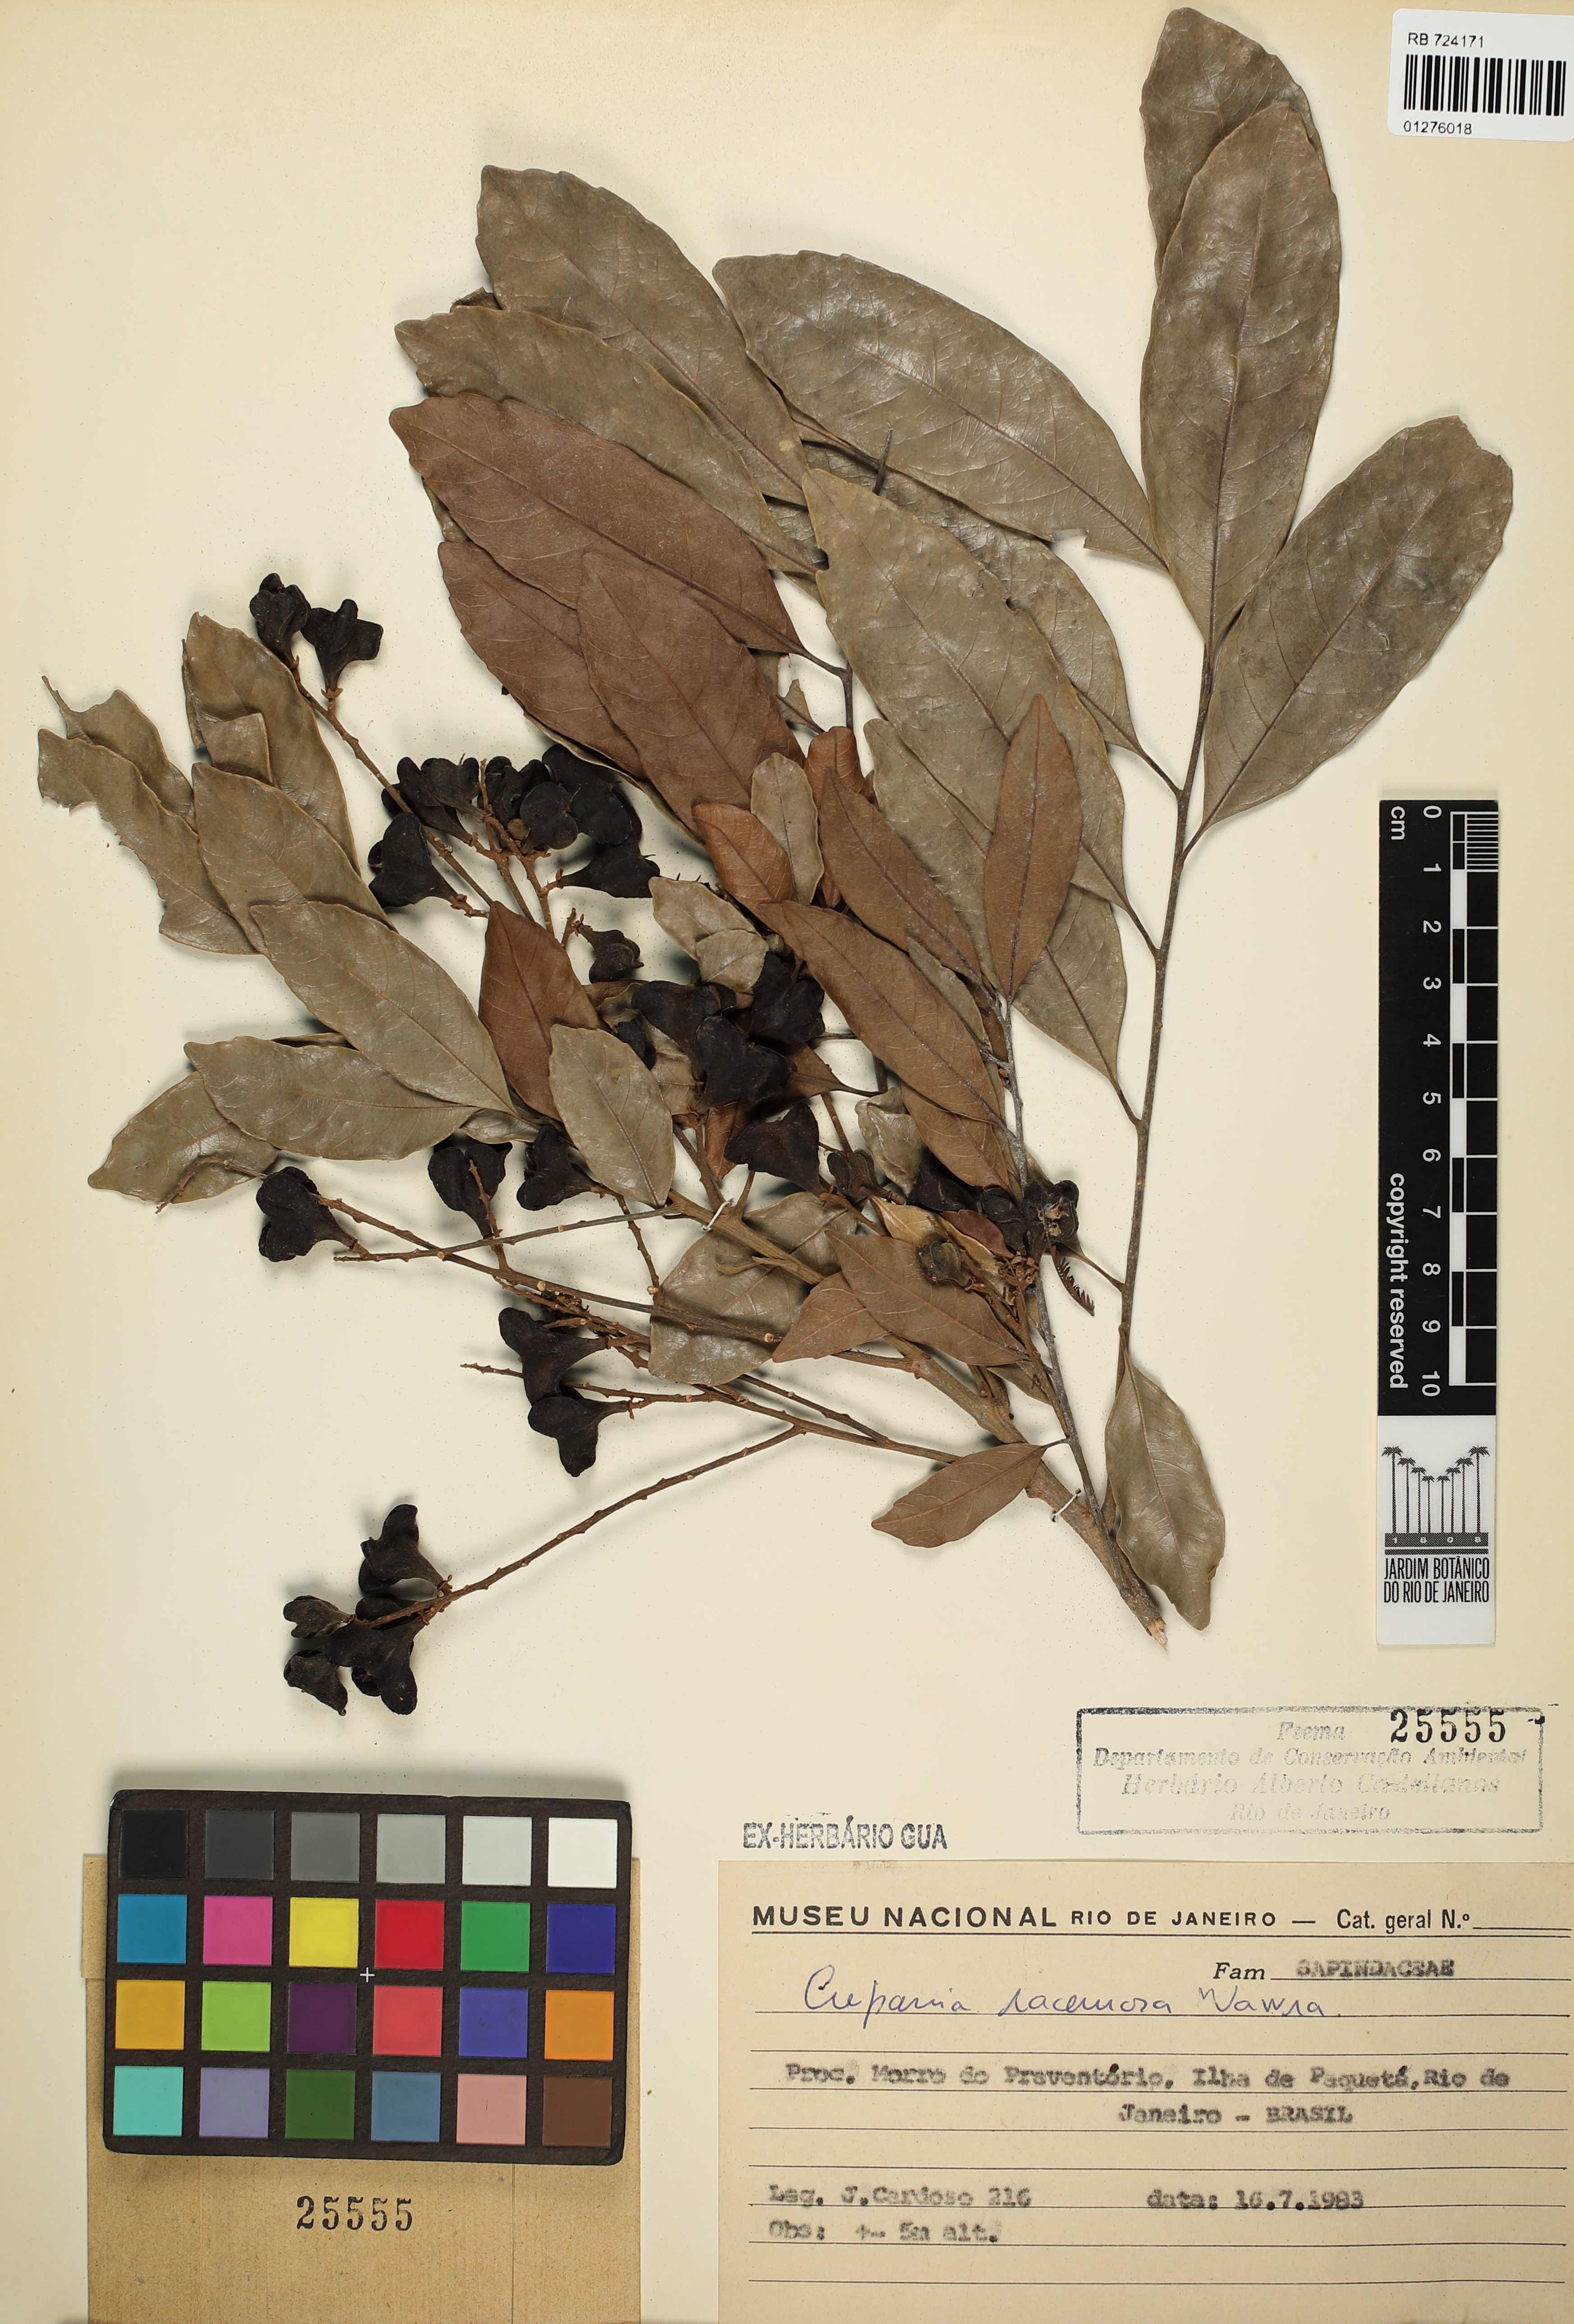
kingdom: Plantae
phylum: Tracheophyta
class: Magnoliopsida
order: Sapindales
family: Sapindaceae
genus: Cupania
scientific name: Cupania racemosa
